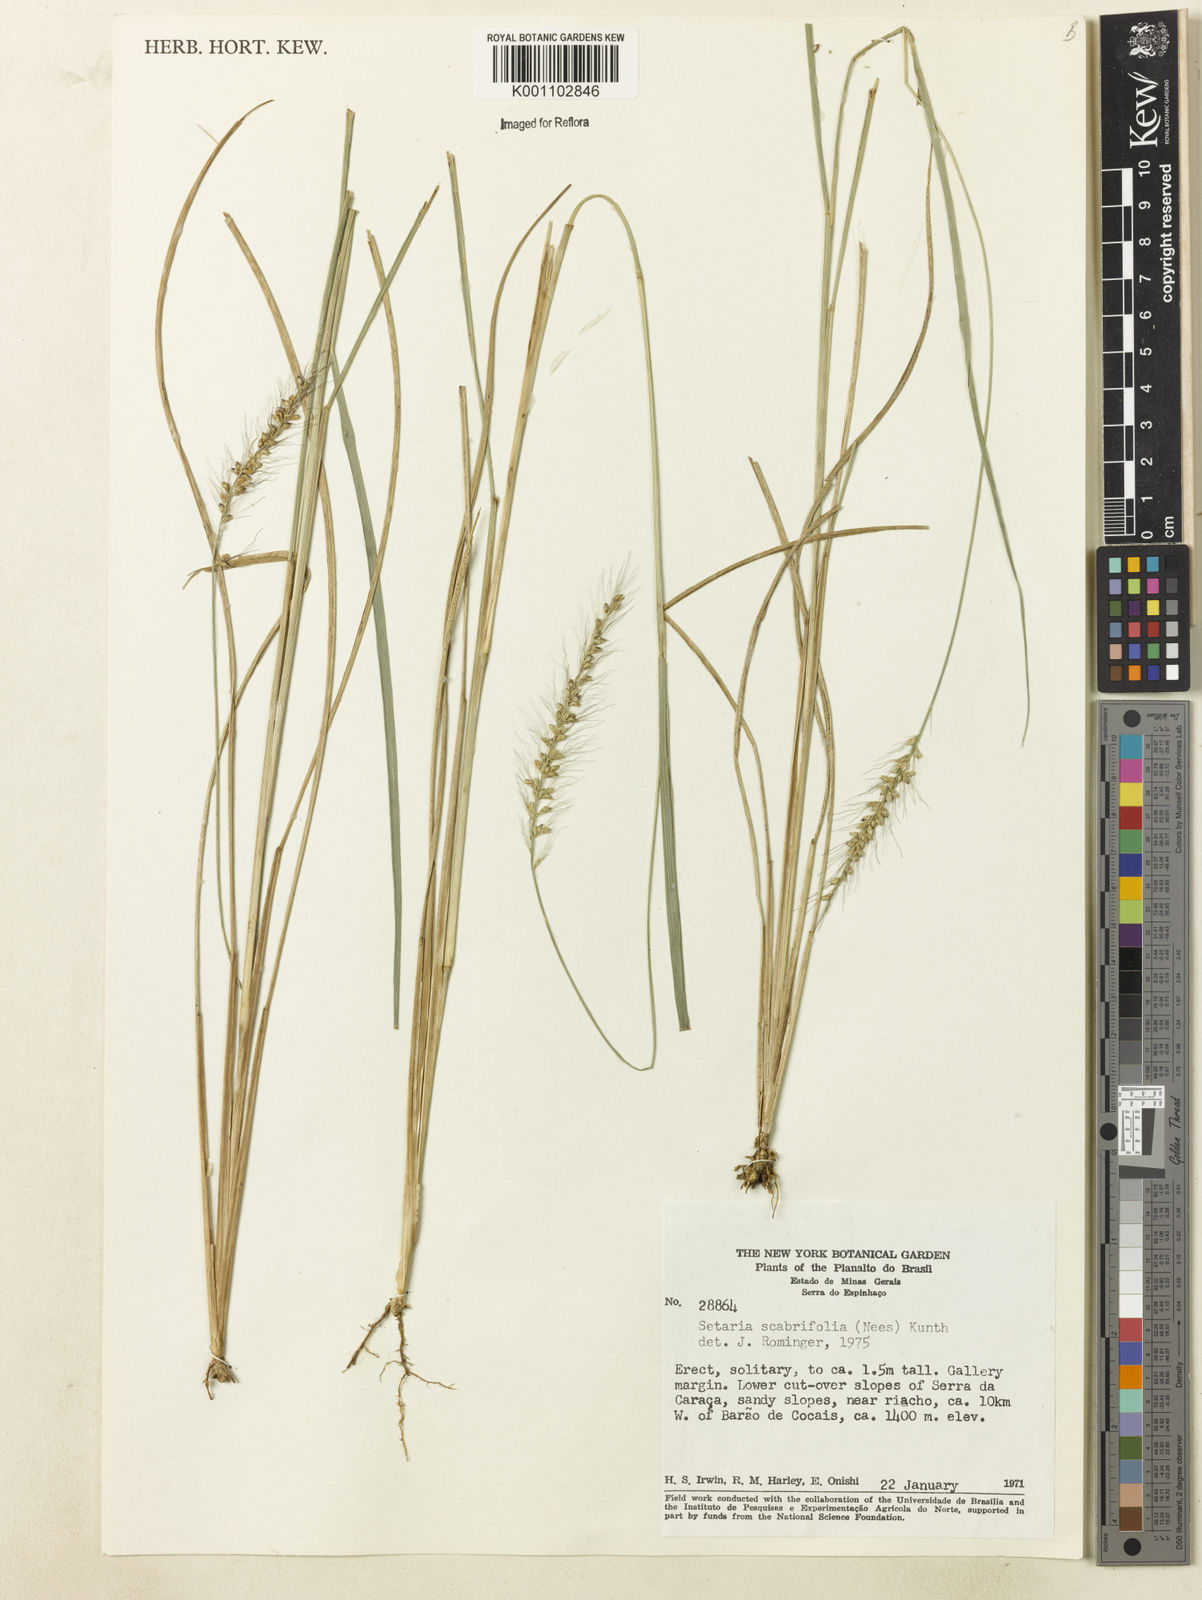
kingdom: Plantae
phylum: Tracheophyta
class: Liliopsida
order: Poales
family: Poaceae
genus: Setaria
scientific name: Setaria scabrifolia
